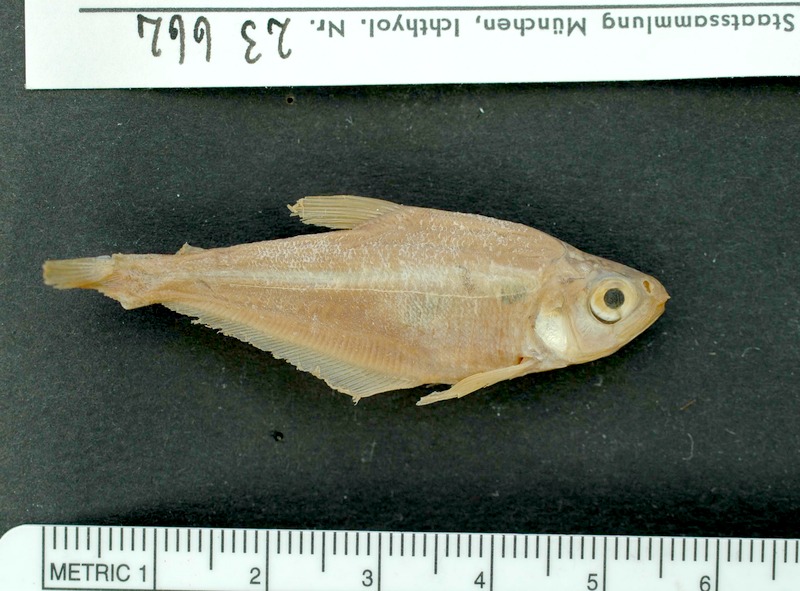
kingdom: Animalia
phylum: Chordata
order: Characiformes
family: Characidae
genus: Stichonodon
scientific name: Stichonodon insignis
